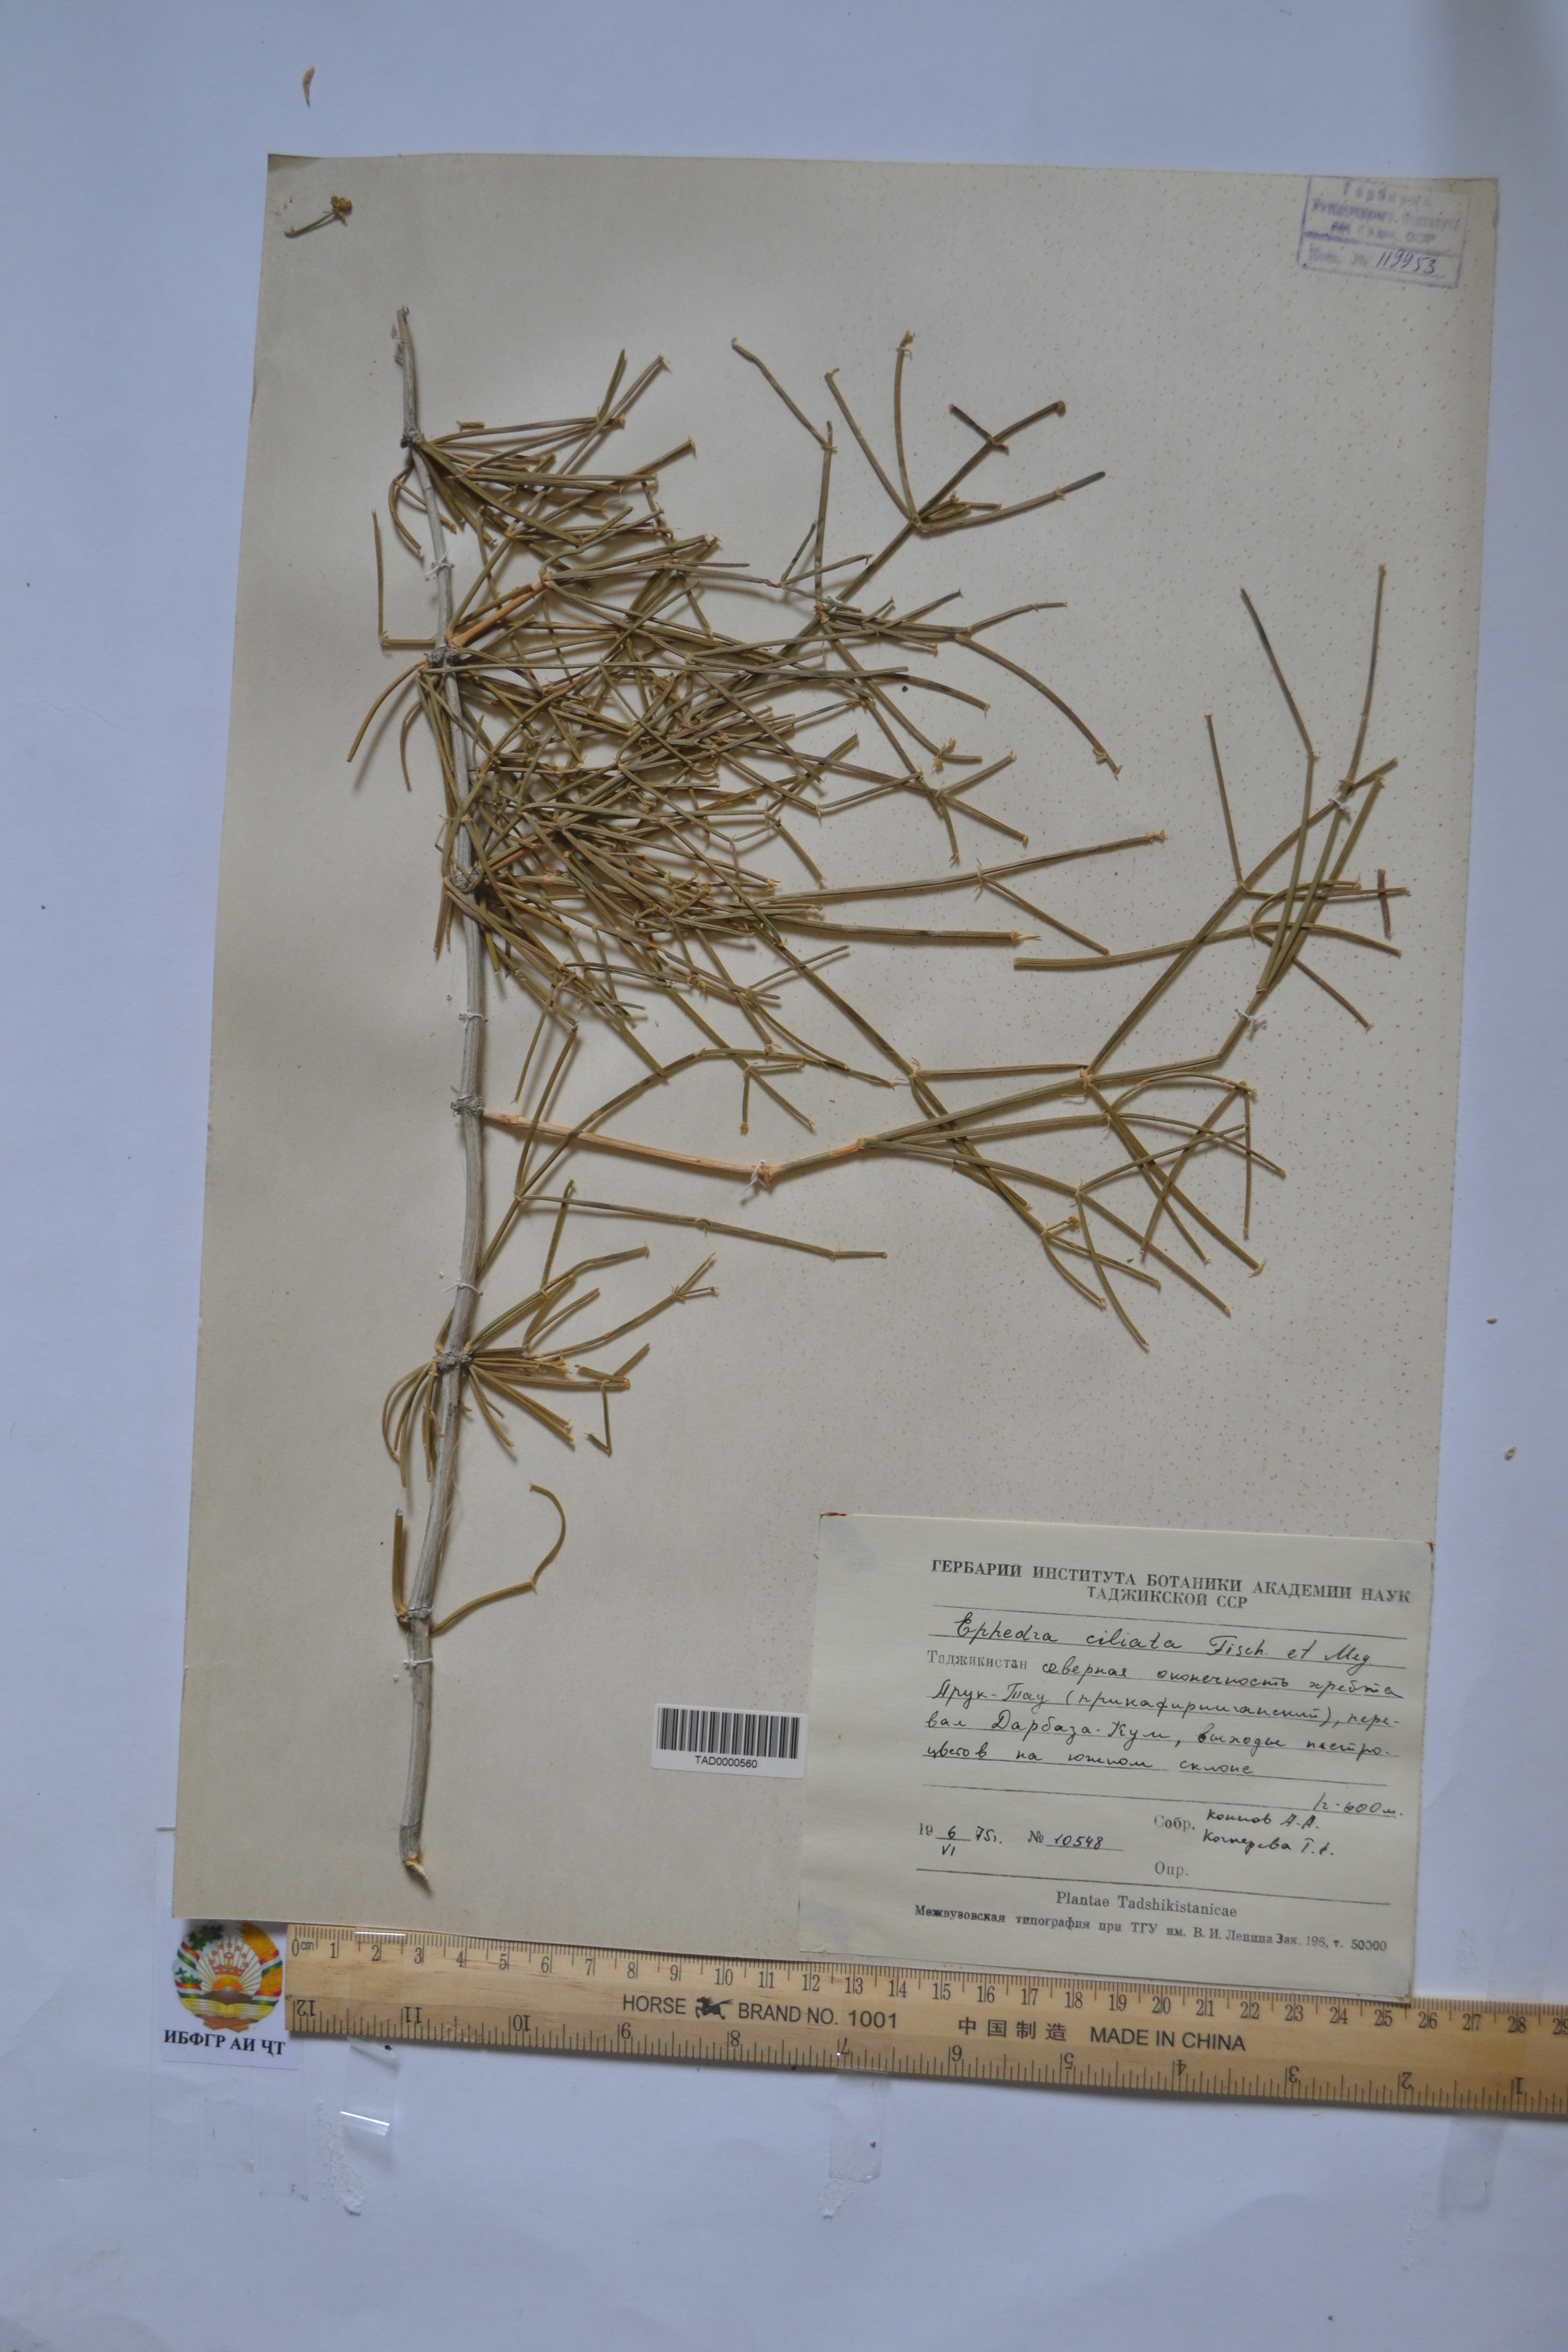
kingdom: Plantae
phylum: Tracheophyta
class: Gnetopsida
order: Ephedrales
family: Ephedraceae
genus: Ephedra
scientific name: Ephedra ciliata
